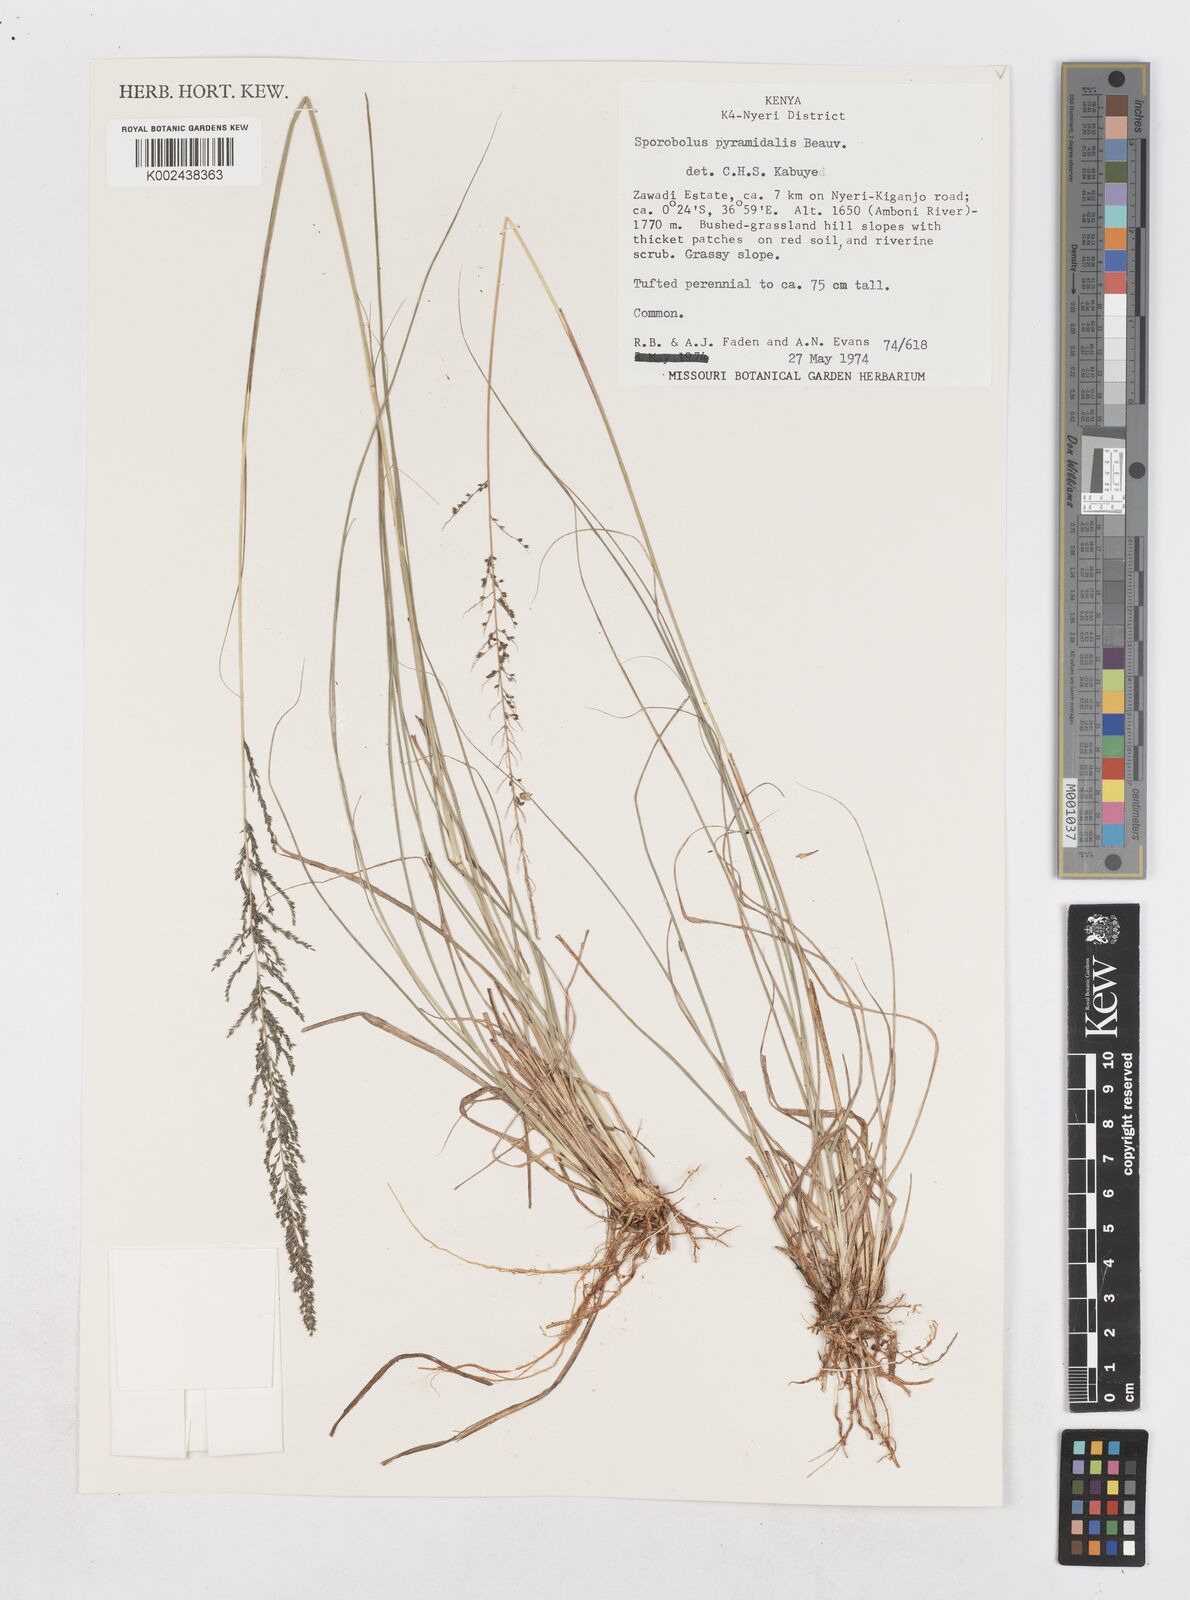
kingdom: Plantae
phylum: Tracheophyta
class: Liliopsida
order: Poales
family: Poaceae
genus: Sporobolus
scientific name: Sporobolus pyramidalis
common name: West indian dropseed
